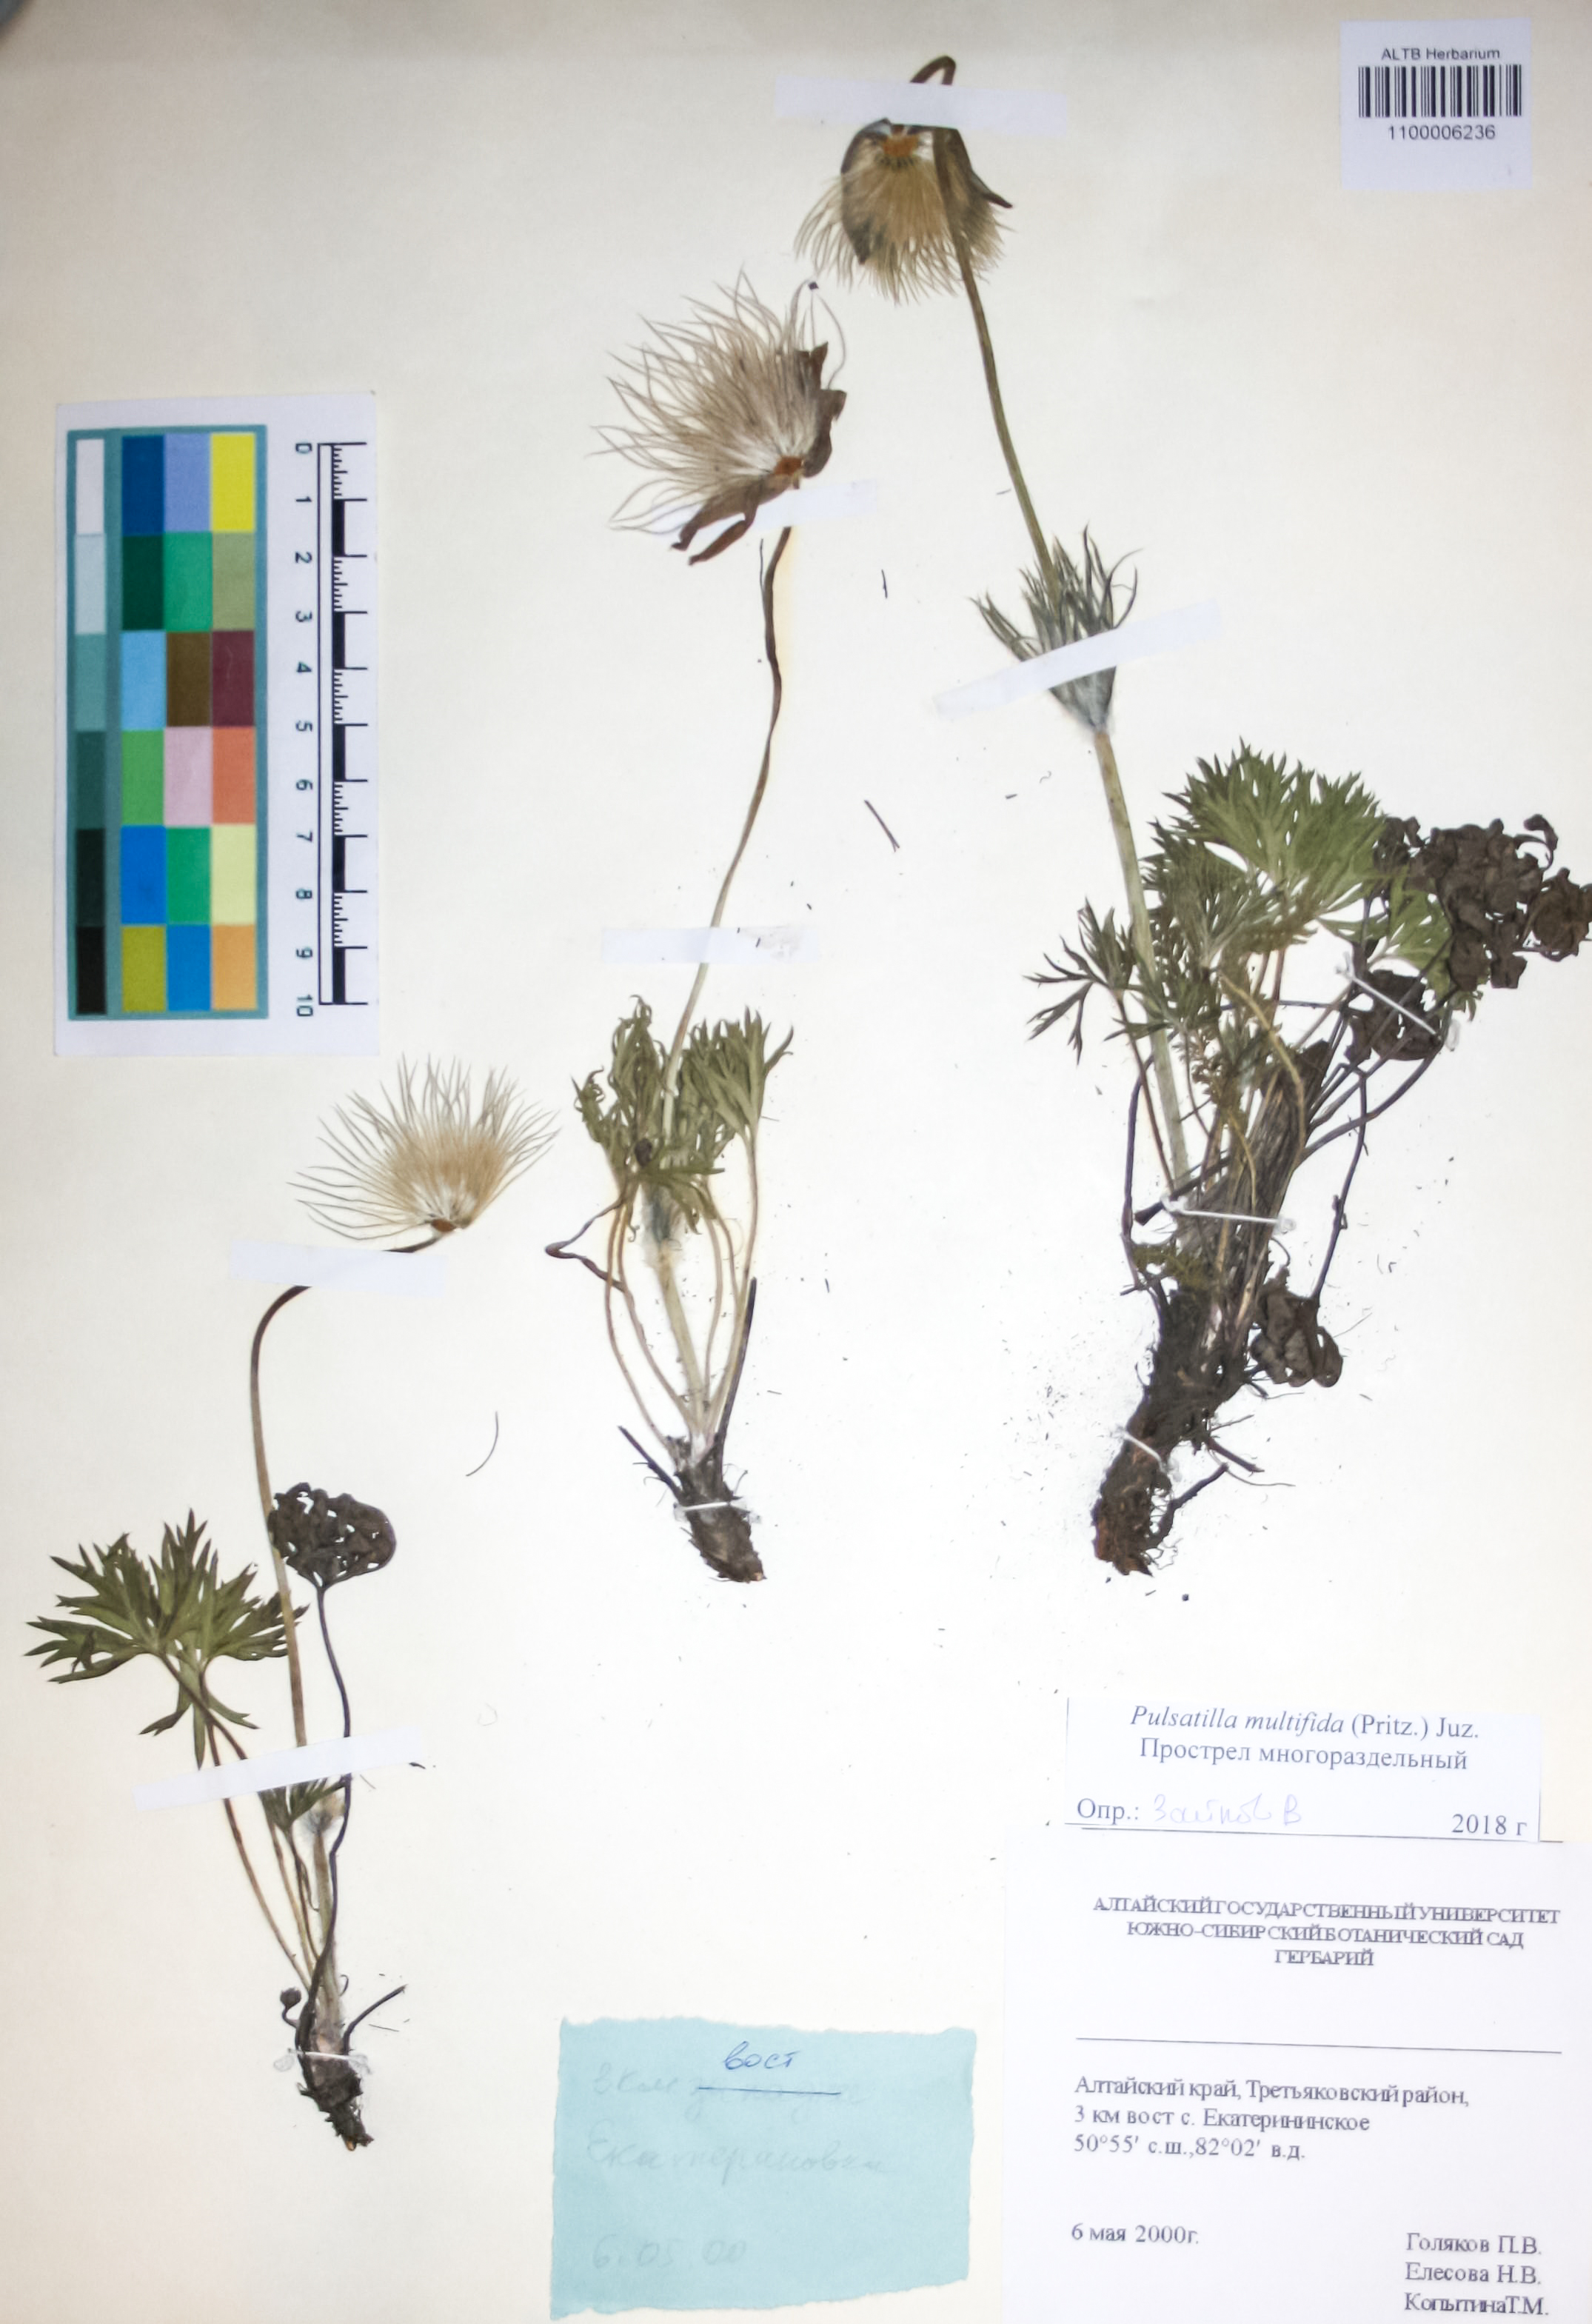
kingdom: Plantae
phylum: Tracheophyta
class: Magnoliopsida
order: Ranunculales
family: Ranunculaceae
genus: Pulsatilla
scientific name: Pulsatilla patens
